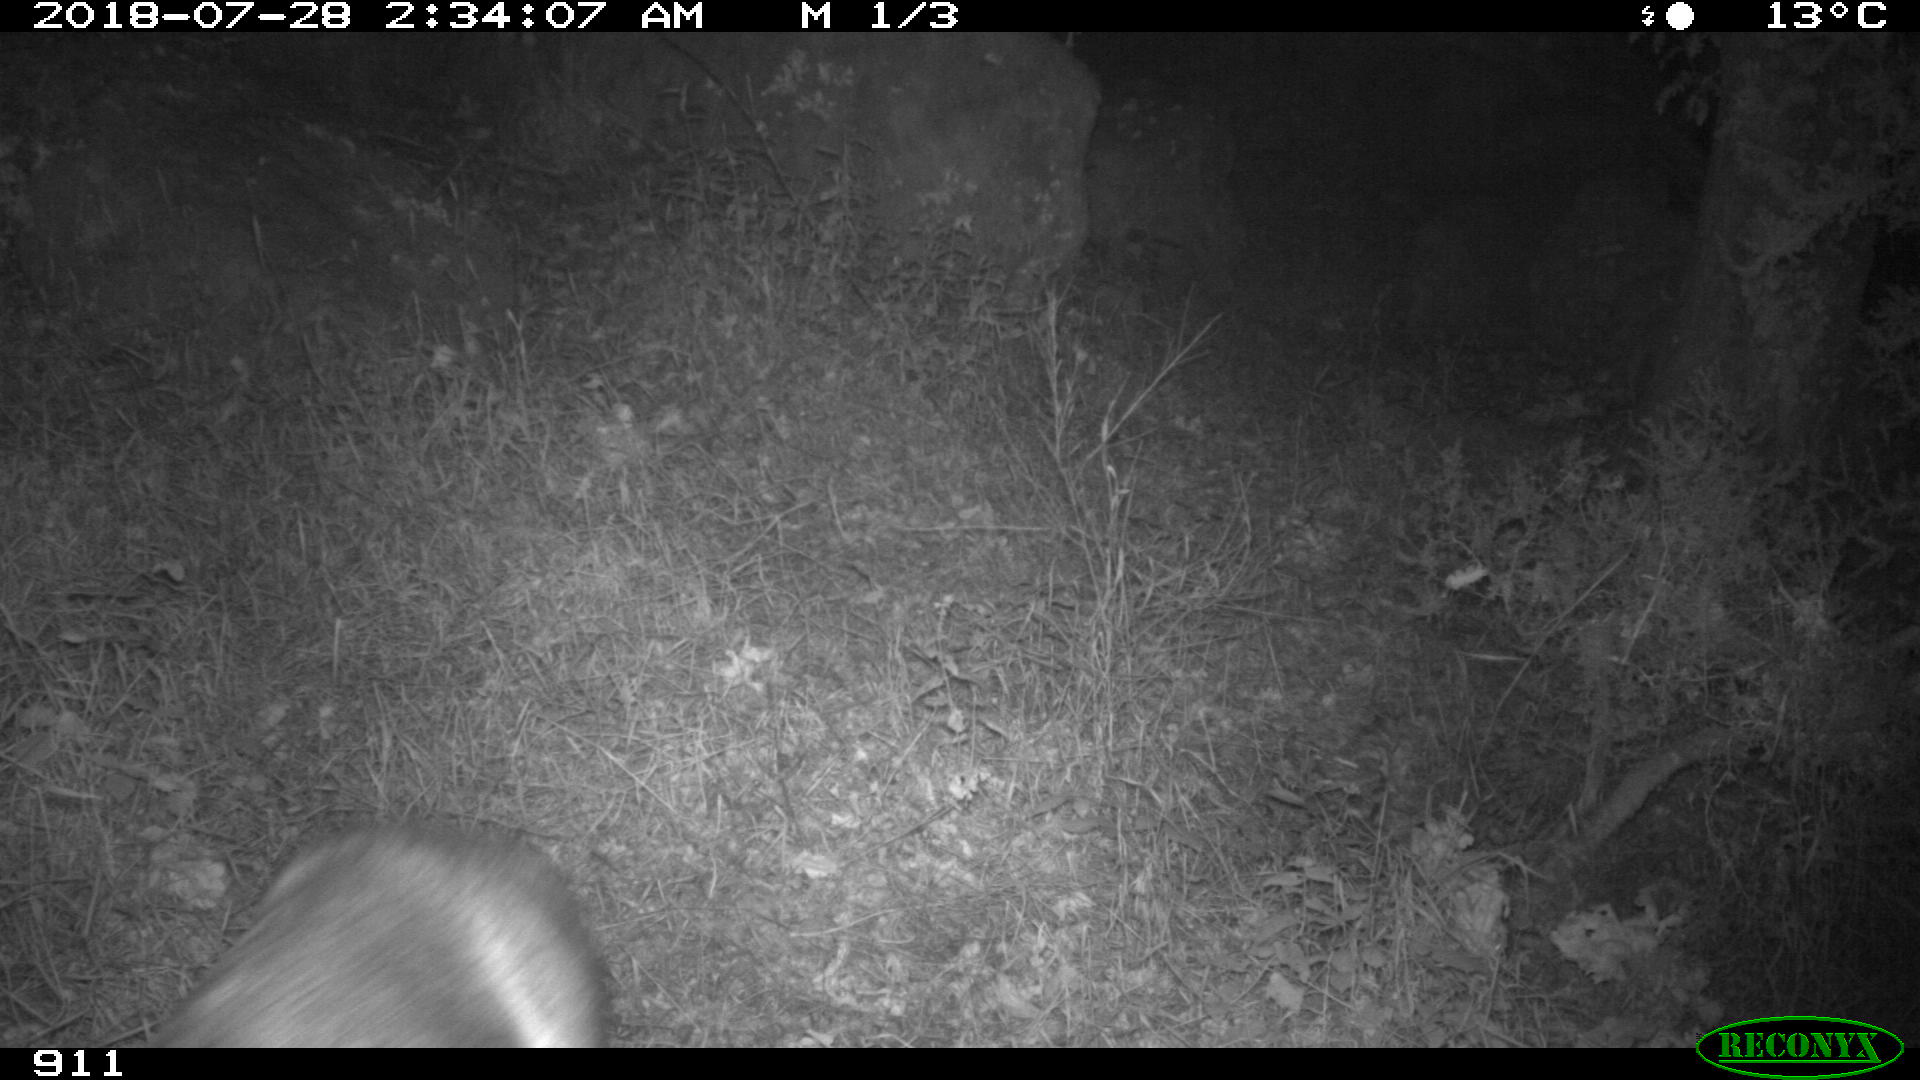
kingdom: Animalia
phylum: Chordata
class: Mammalia
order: Artiodactyla
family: Cervidae
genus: Capreolus
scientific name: Capreolus capreolus
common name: Western roe deer
